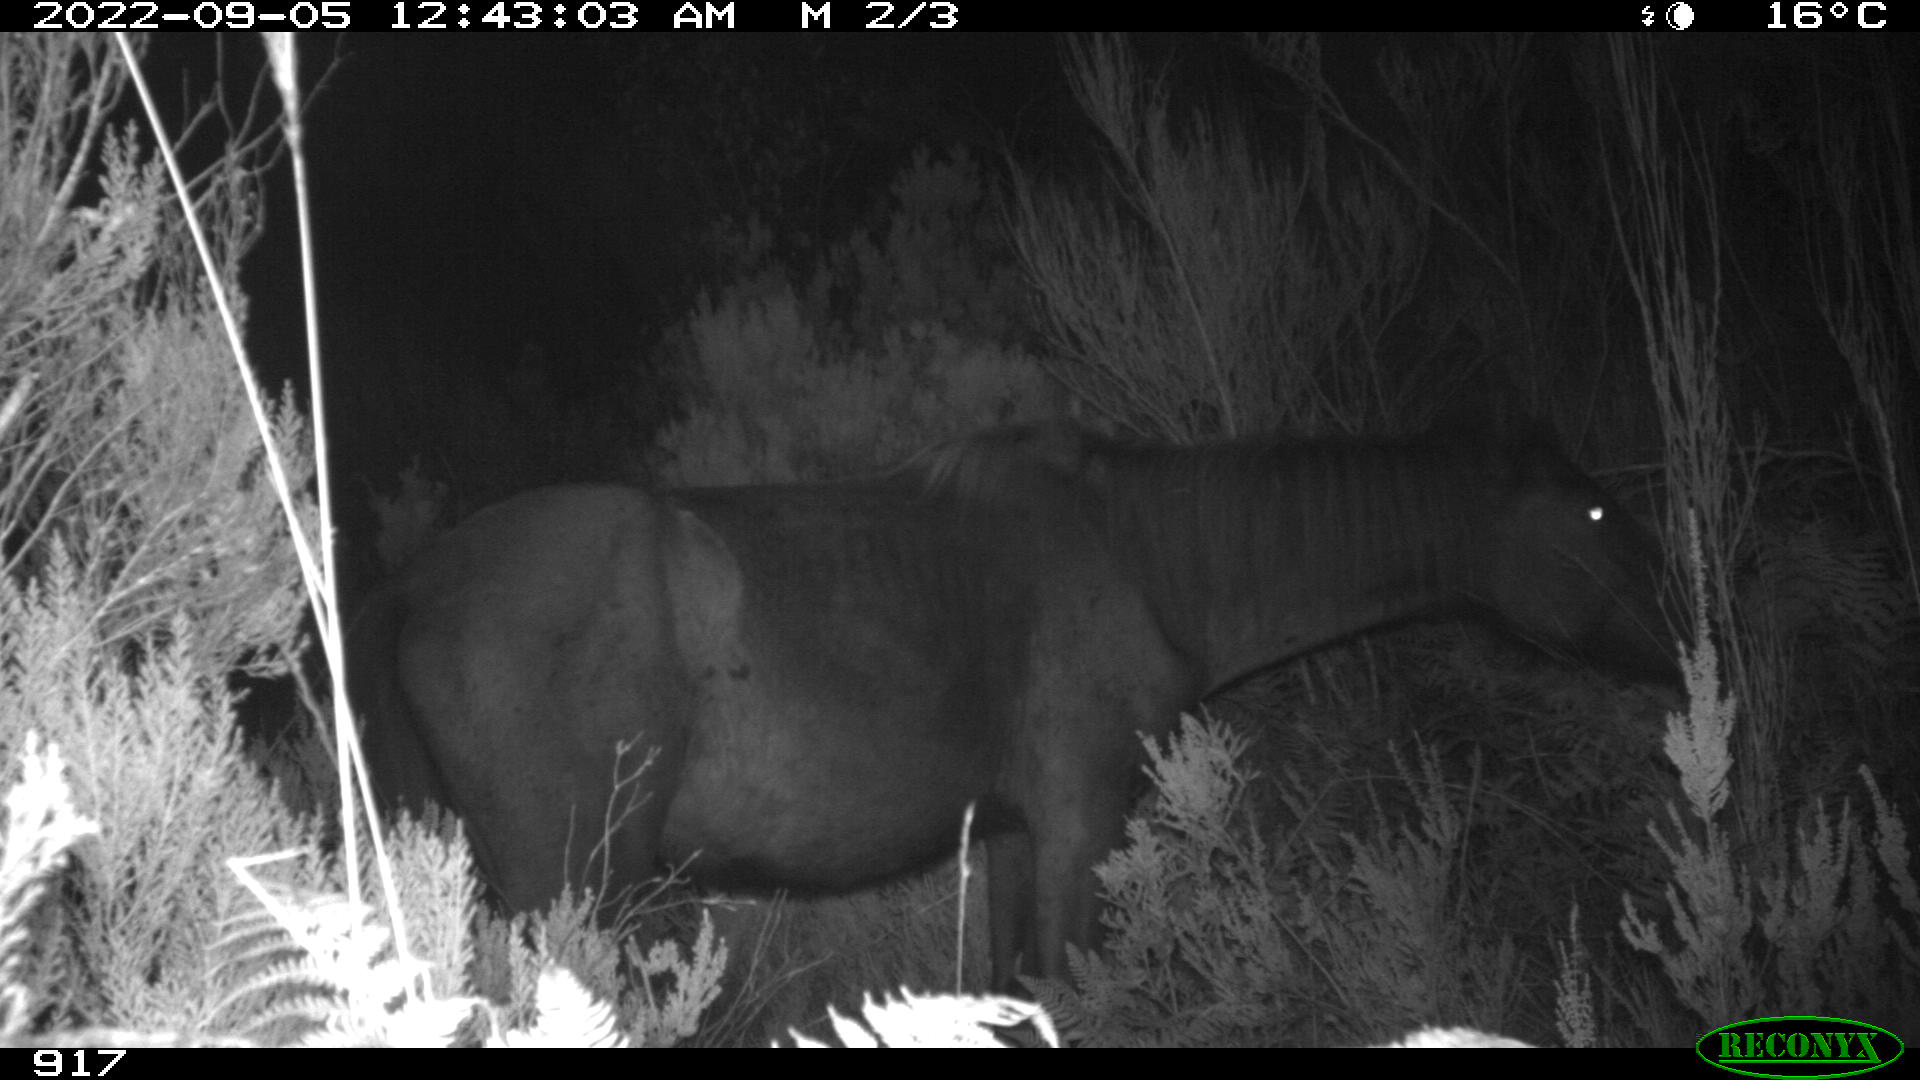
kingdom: Animalia
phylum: Chordata
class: Mammalia
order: Perissodactyla
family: Equidae
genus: Equus
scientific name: Equus caballus
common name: Horse
